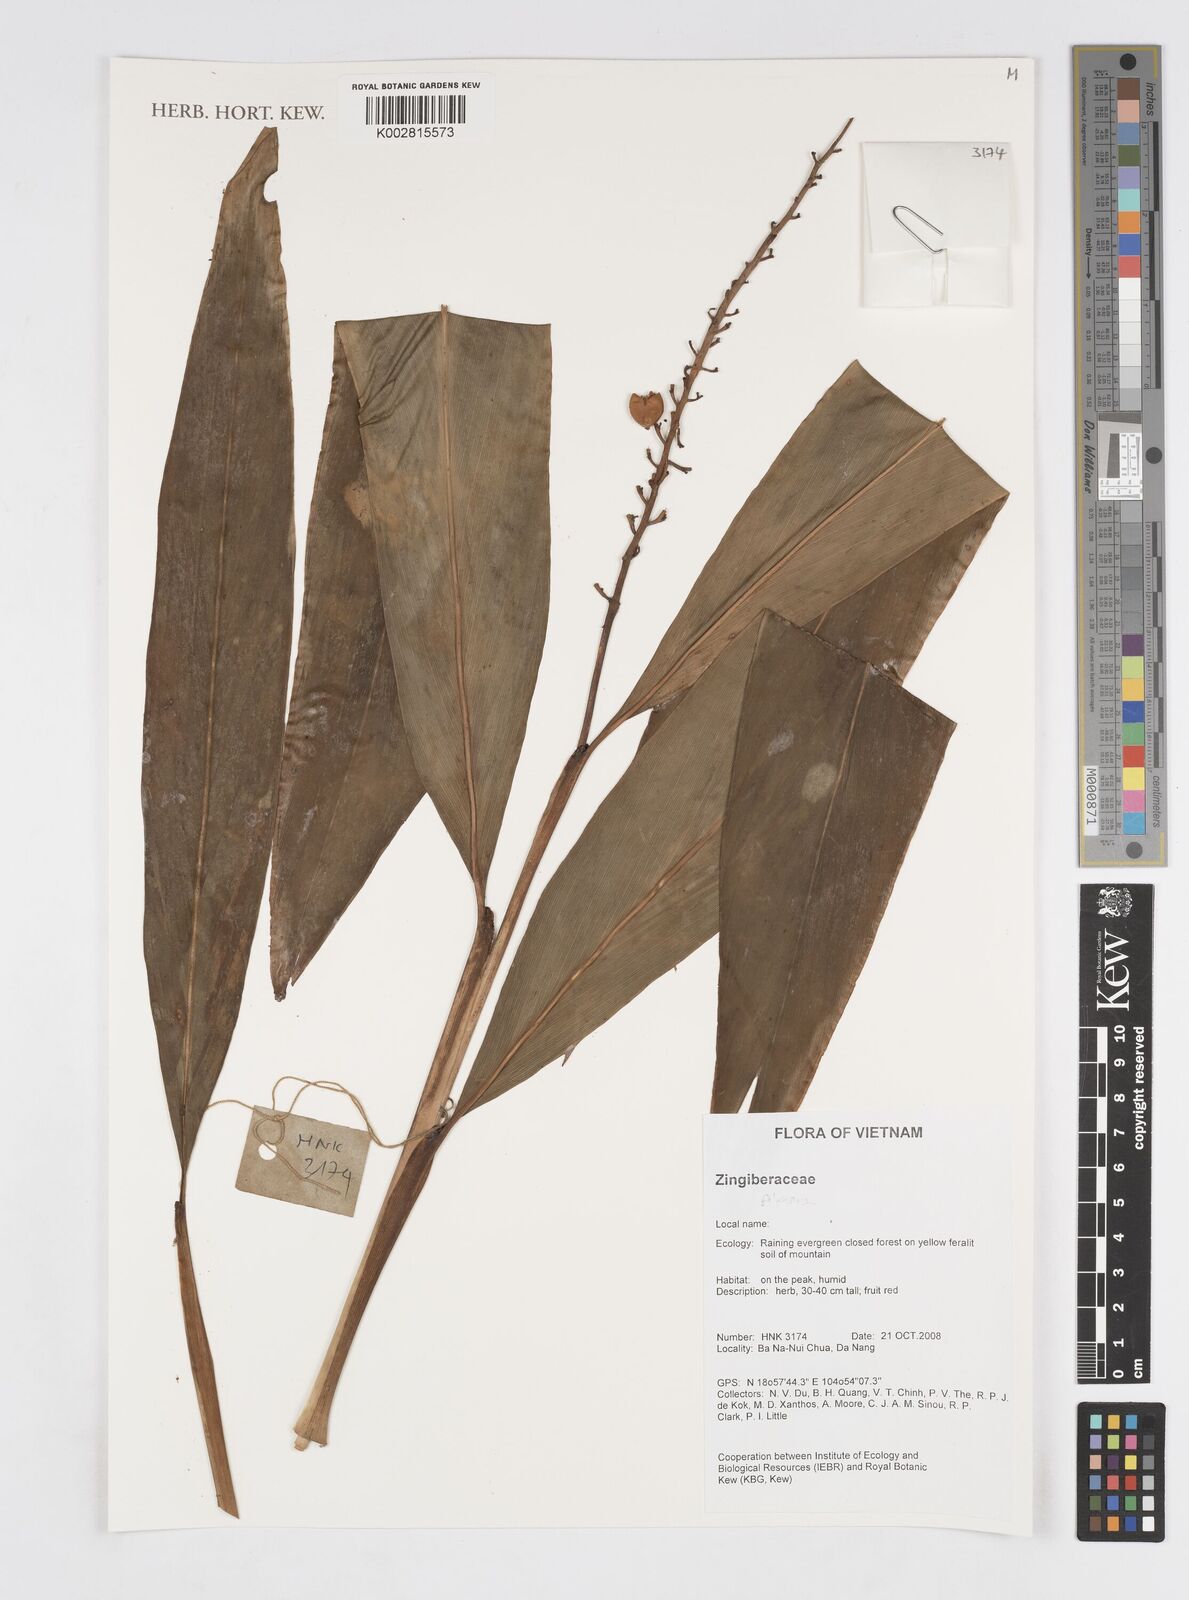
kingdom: Plantae
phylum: Tracheophyta
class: Liliopsida
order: Zingiberales
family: Zingiberaceae
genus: Alpinia
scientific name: Alpinia
